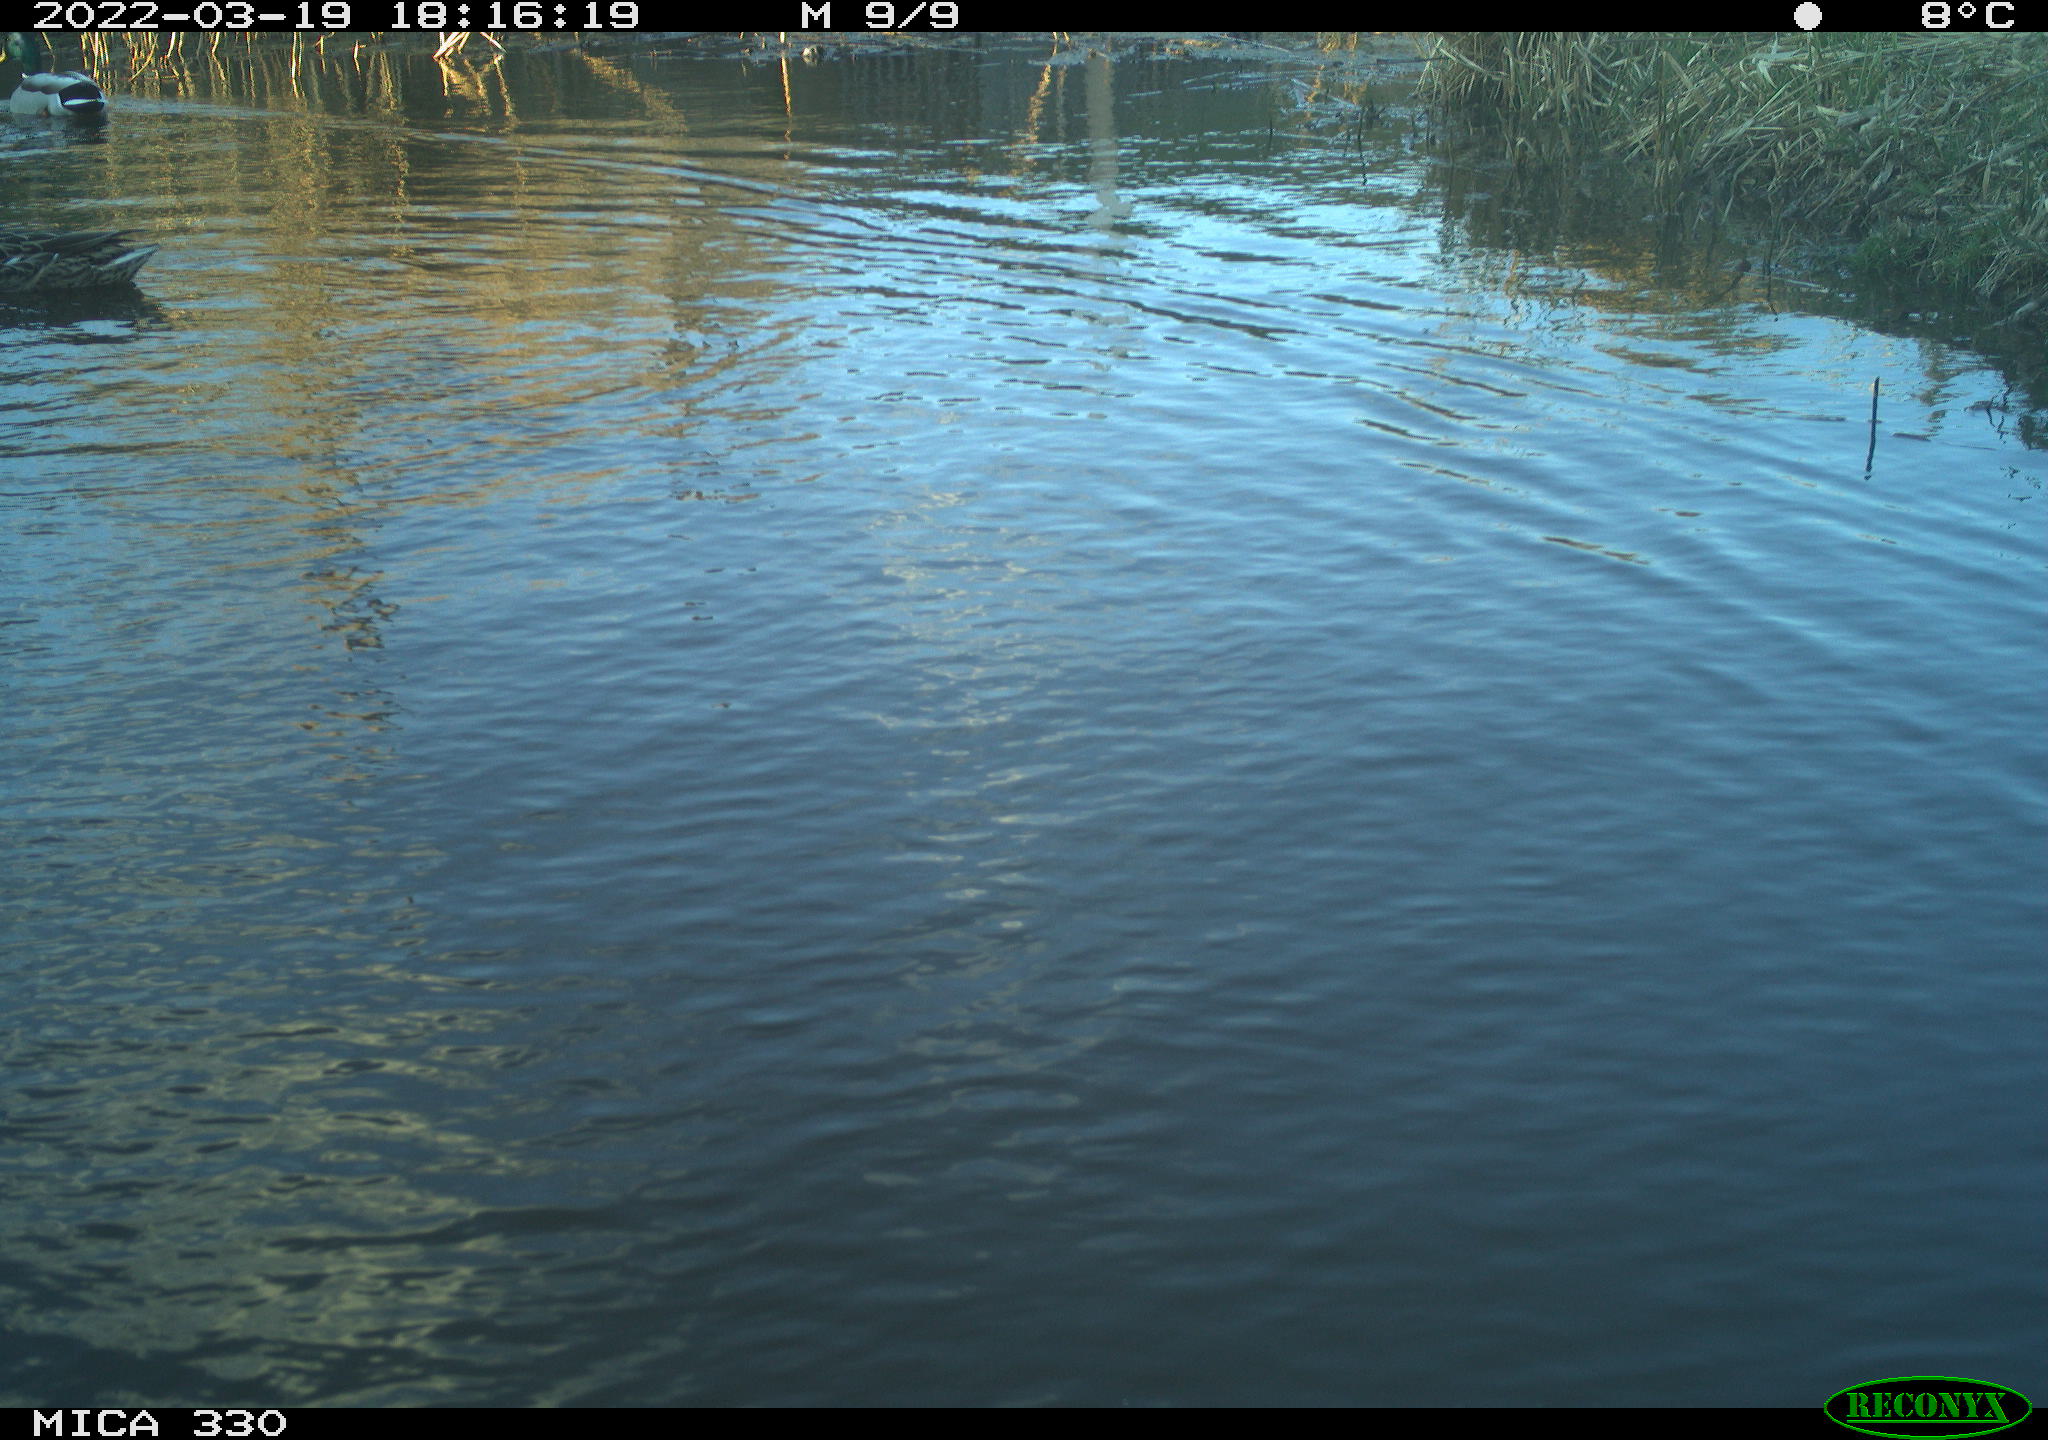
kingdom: Animalia
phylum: Chordata
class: Aves
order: Anseriformes
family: Anatidae
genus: Anas
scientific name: Anas platyrhynchos
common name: Mallard
